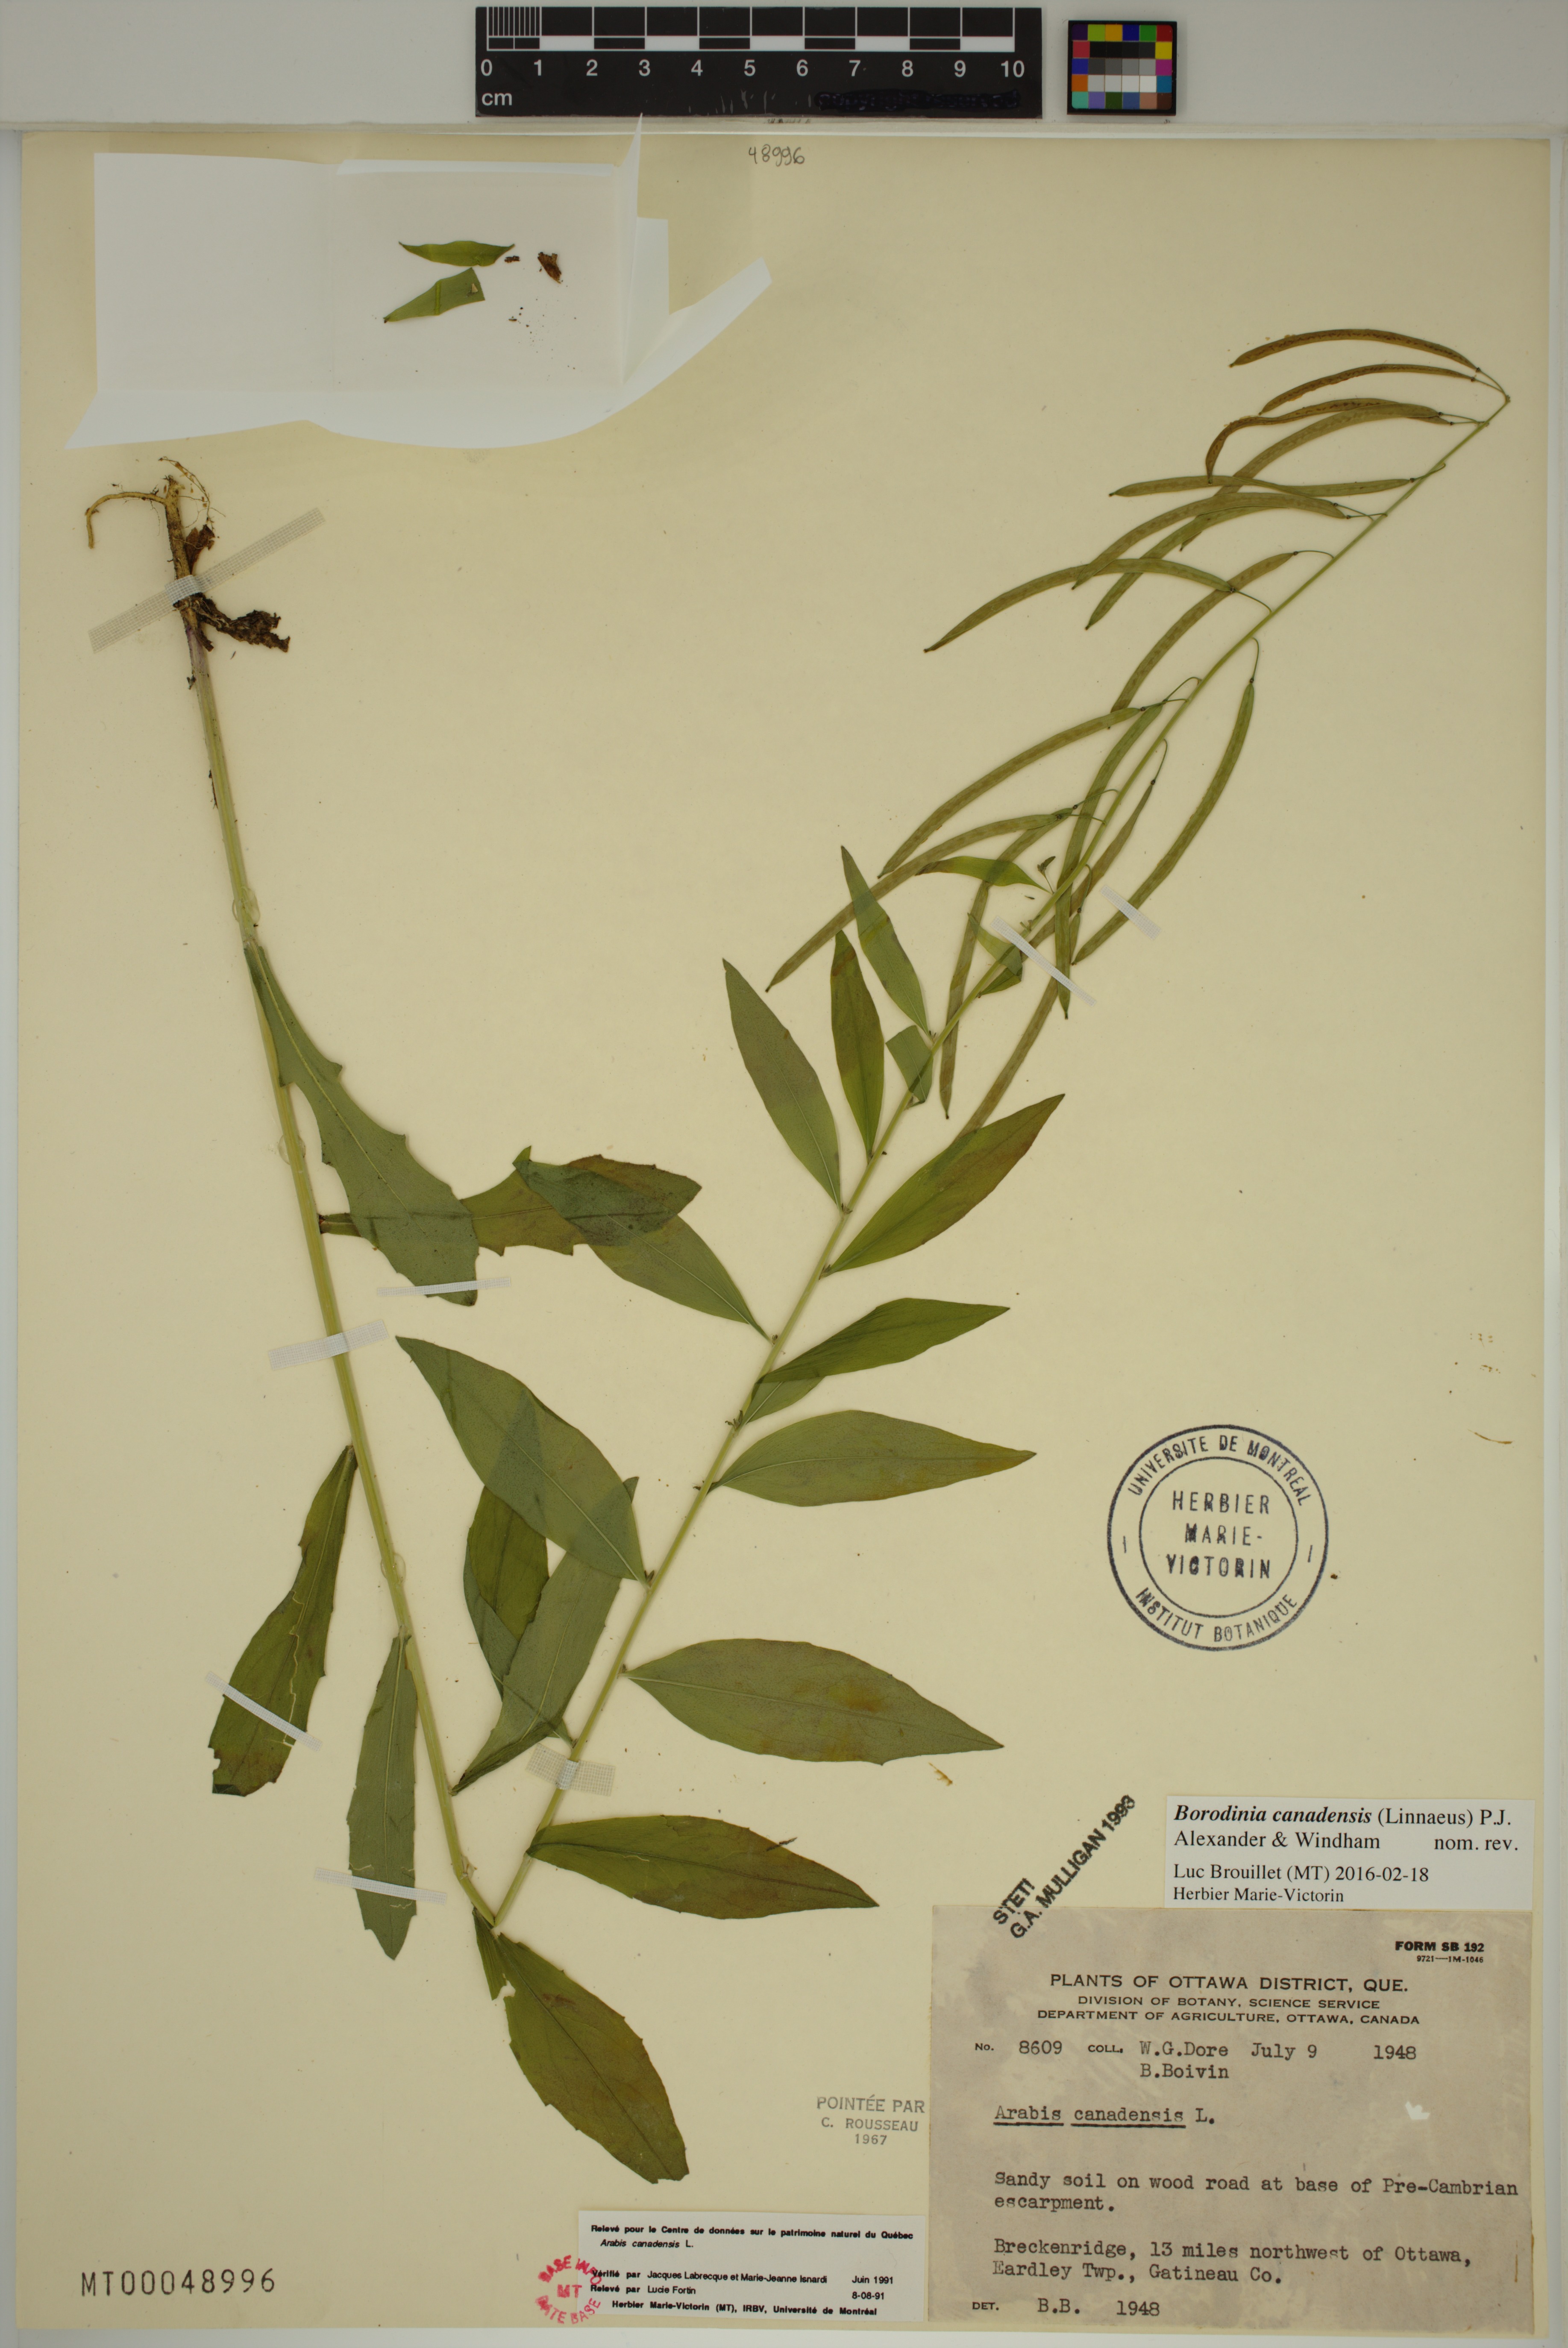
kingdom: Plantae
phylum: Tracheophyta
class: Magnoliopsida
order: Brassicales
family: Brassicaceae
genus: Borodinia
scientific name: Borodinia canadensis
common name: Sicklepod
